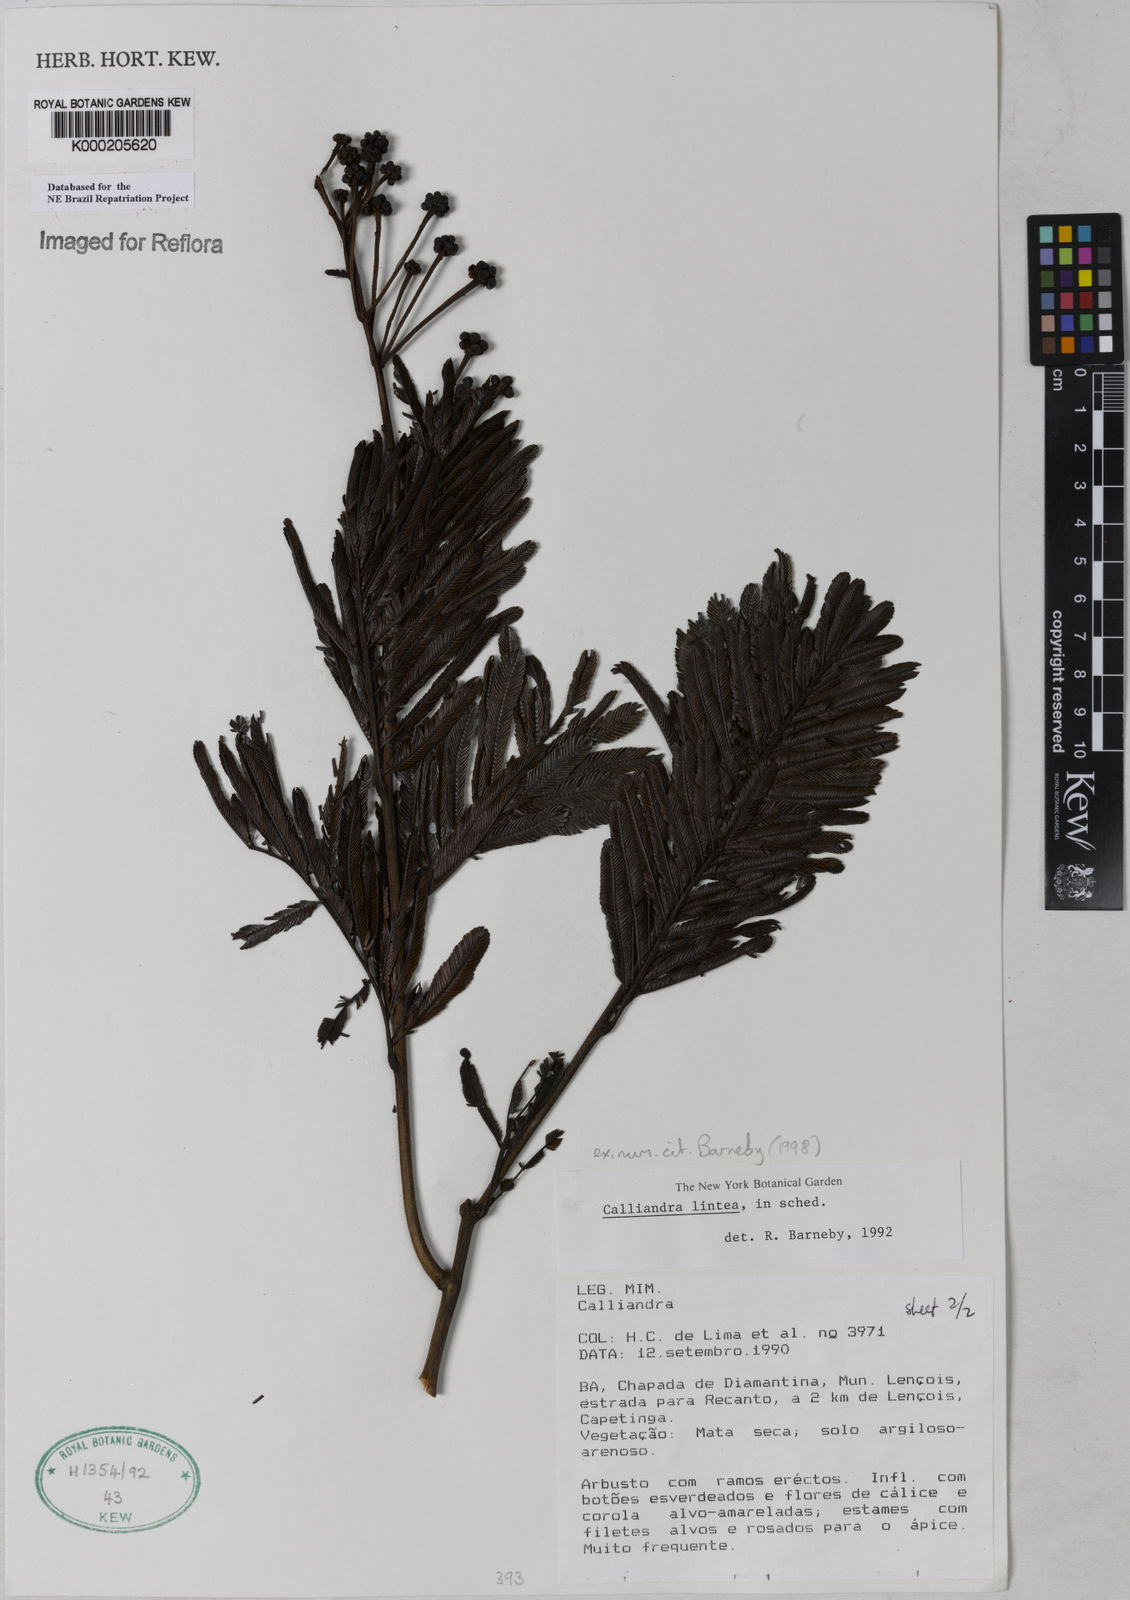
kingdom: Plantae
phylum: Tracheophyta
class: Magnoliopsida
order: Fabales
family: Fabaceae
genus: Calliandra
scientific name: Calliandra lintea
